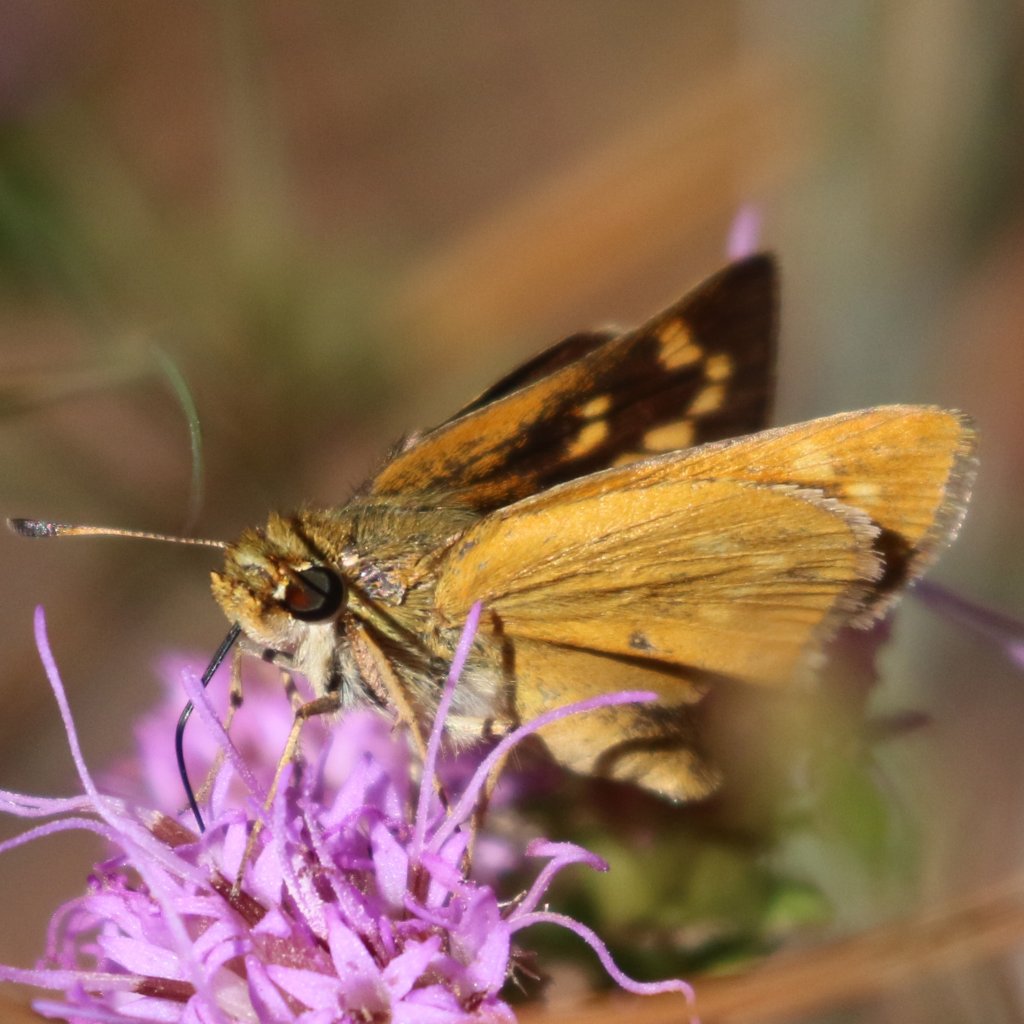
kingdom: Animalia
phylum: Arthropoda
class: Insecta
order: Lepidoptera
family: Hesperiidae
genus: Hesperia
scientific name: Hesperia meskei
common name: Meske's Skipper
